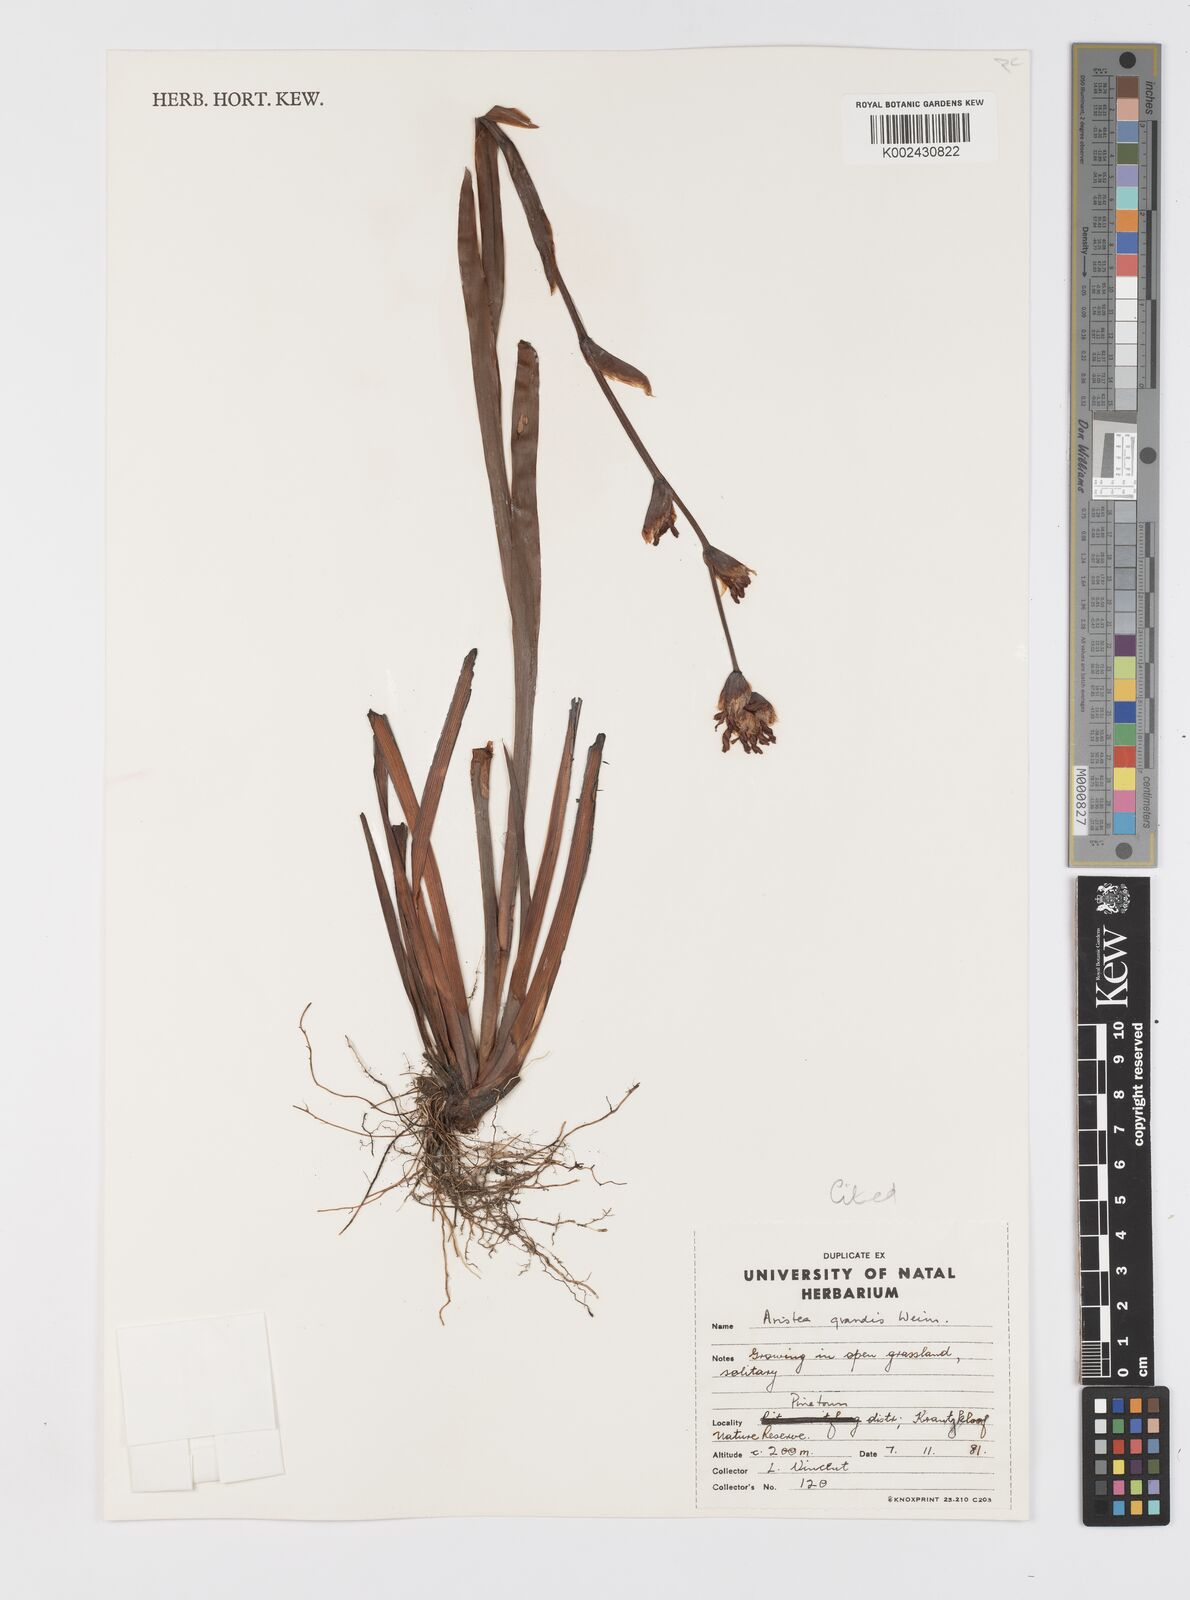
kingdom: Plantae
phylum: Tracheophyta
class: Liliopsida
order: Asparagales
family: Iridaceae
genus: Aristea
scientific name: Aristea grandis
